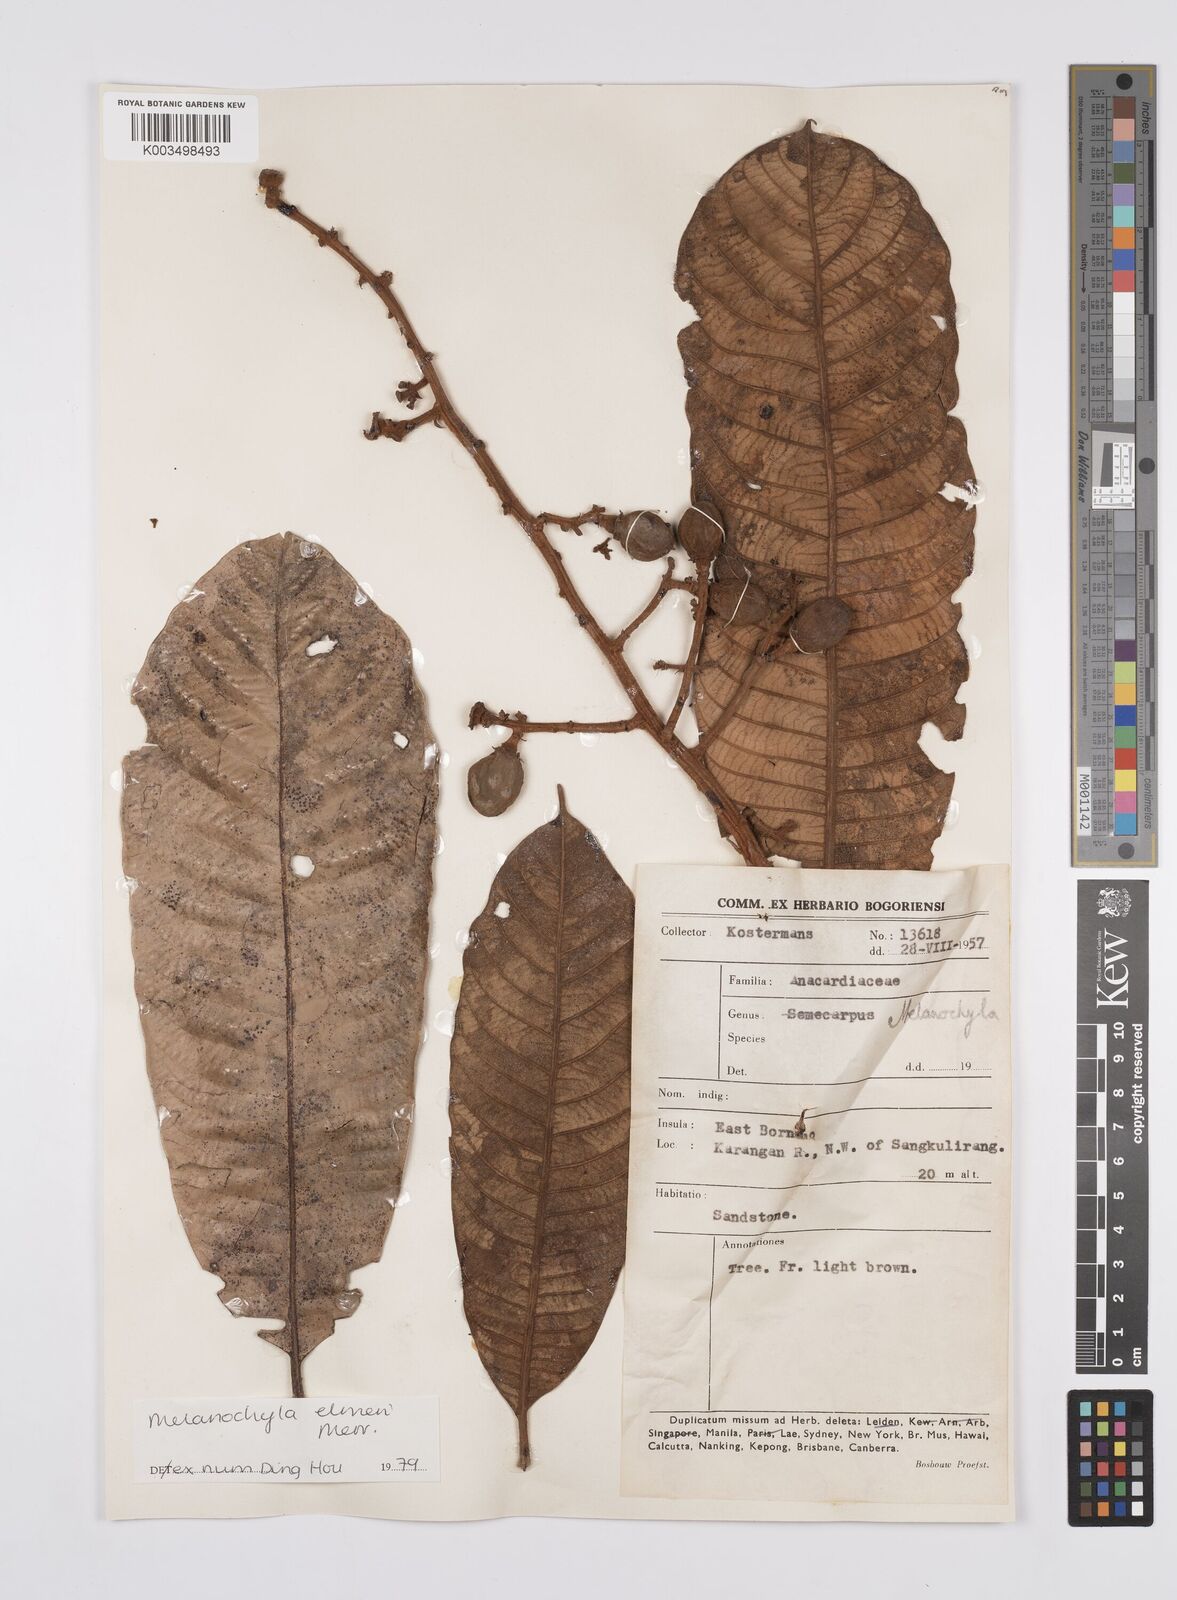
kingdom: Plantae
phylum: Tracheophyta
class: Magnoliopsida
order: Sapindales
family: Anacardiaceae
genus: Melanochyla
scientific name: Melanochyla elmeri
